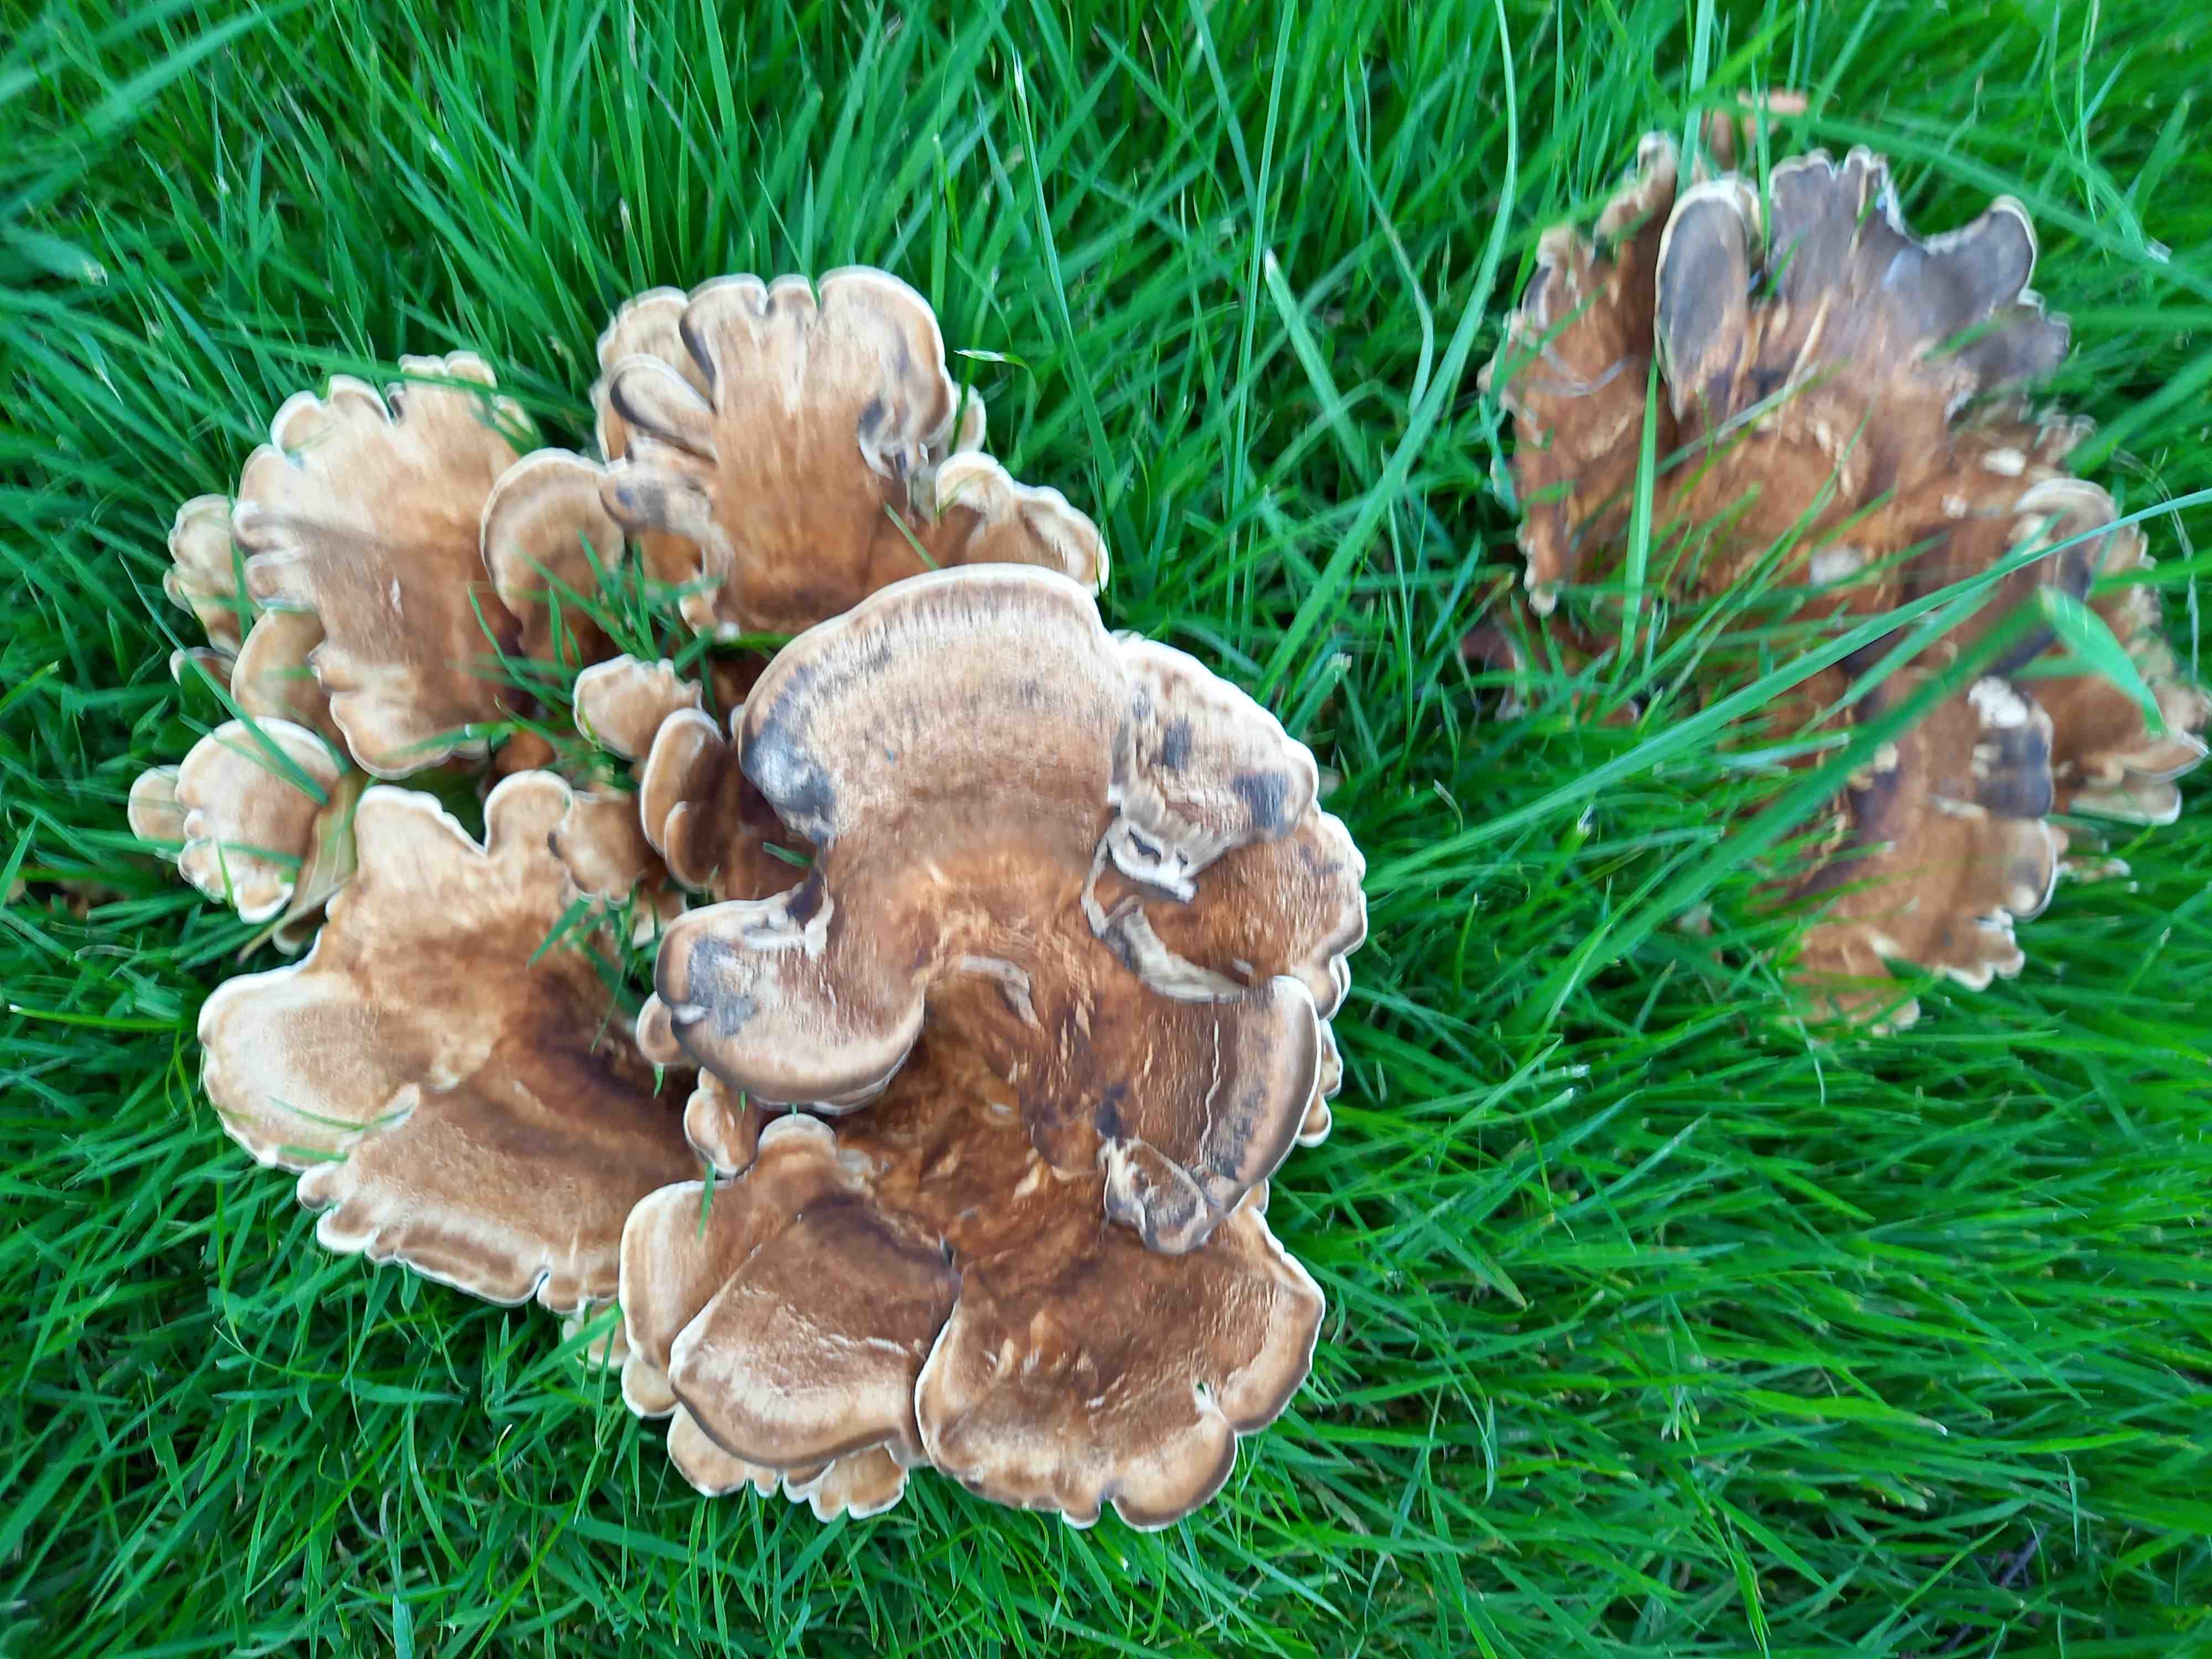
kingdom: Fungi
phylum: Basidiomycota
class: Agaricomycetes
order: Polyporales
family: Meripilaceae
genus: Meripilus
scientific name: Meripilus giganteus
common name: kæmpeporesvamp
